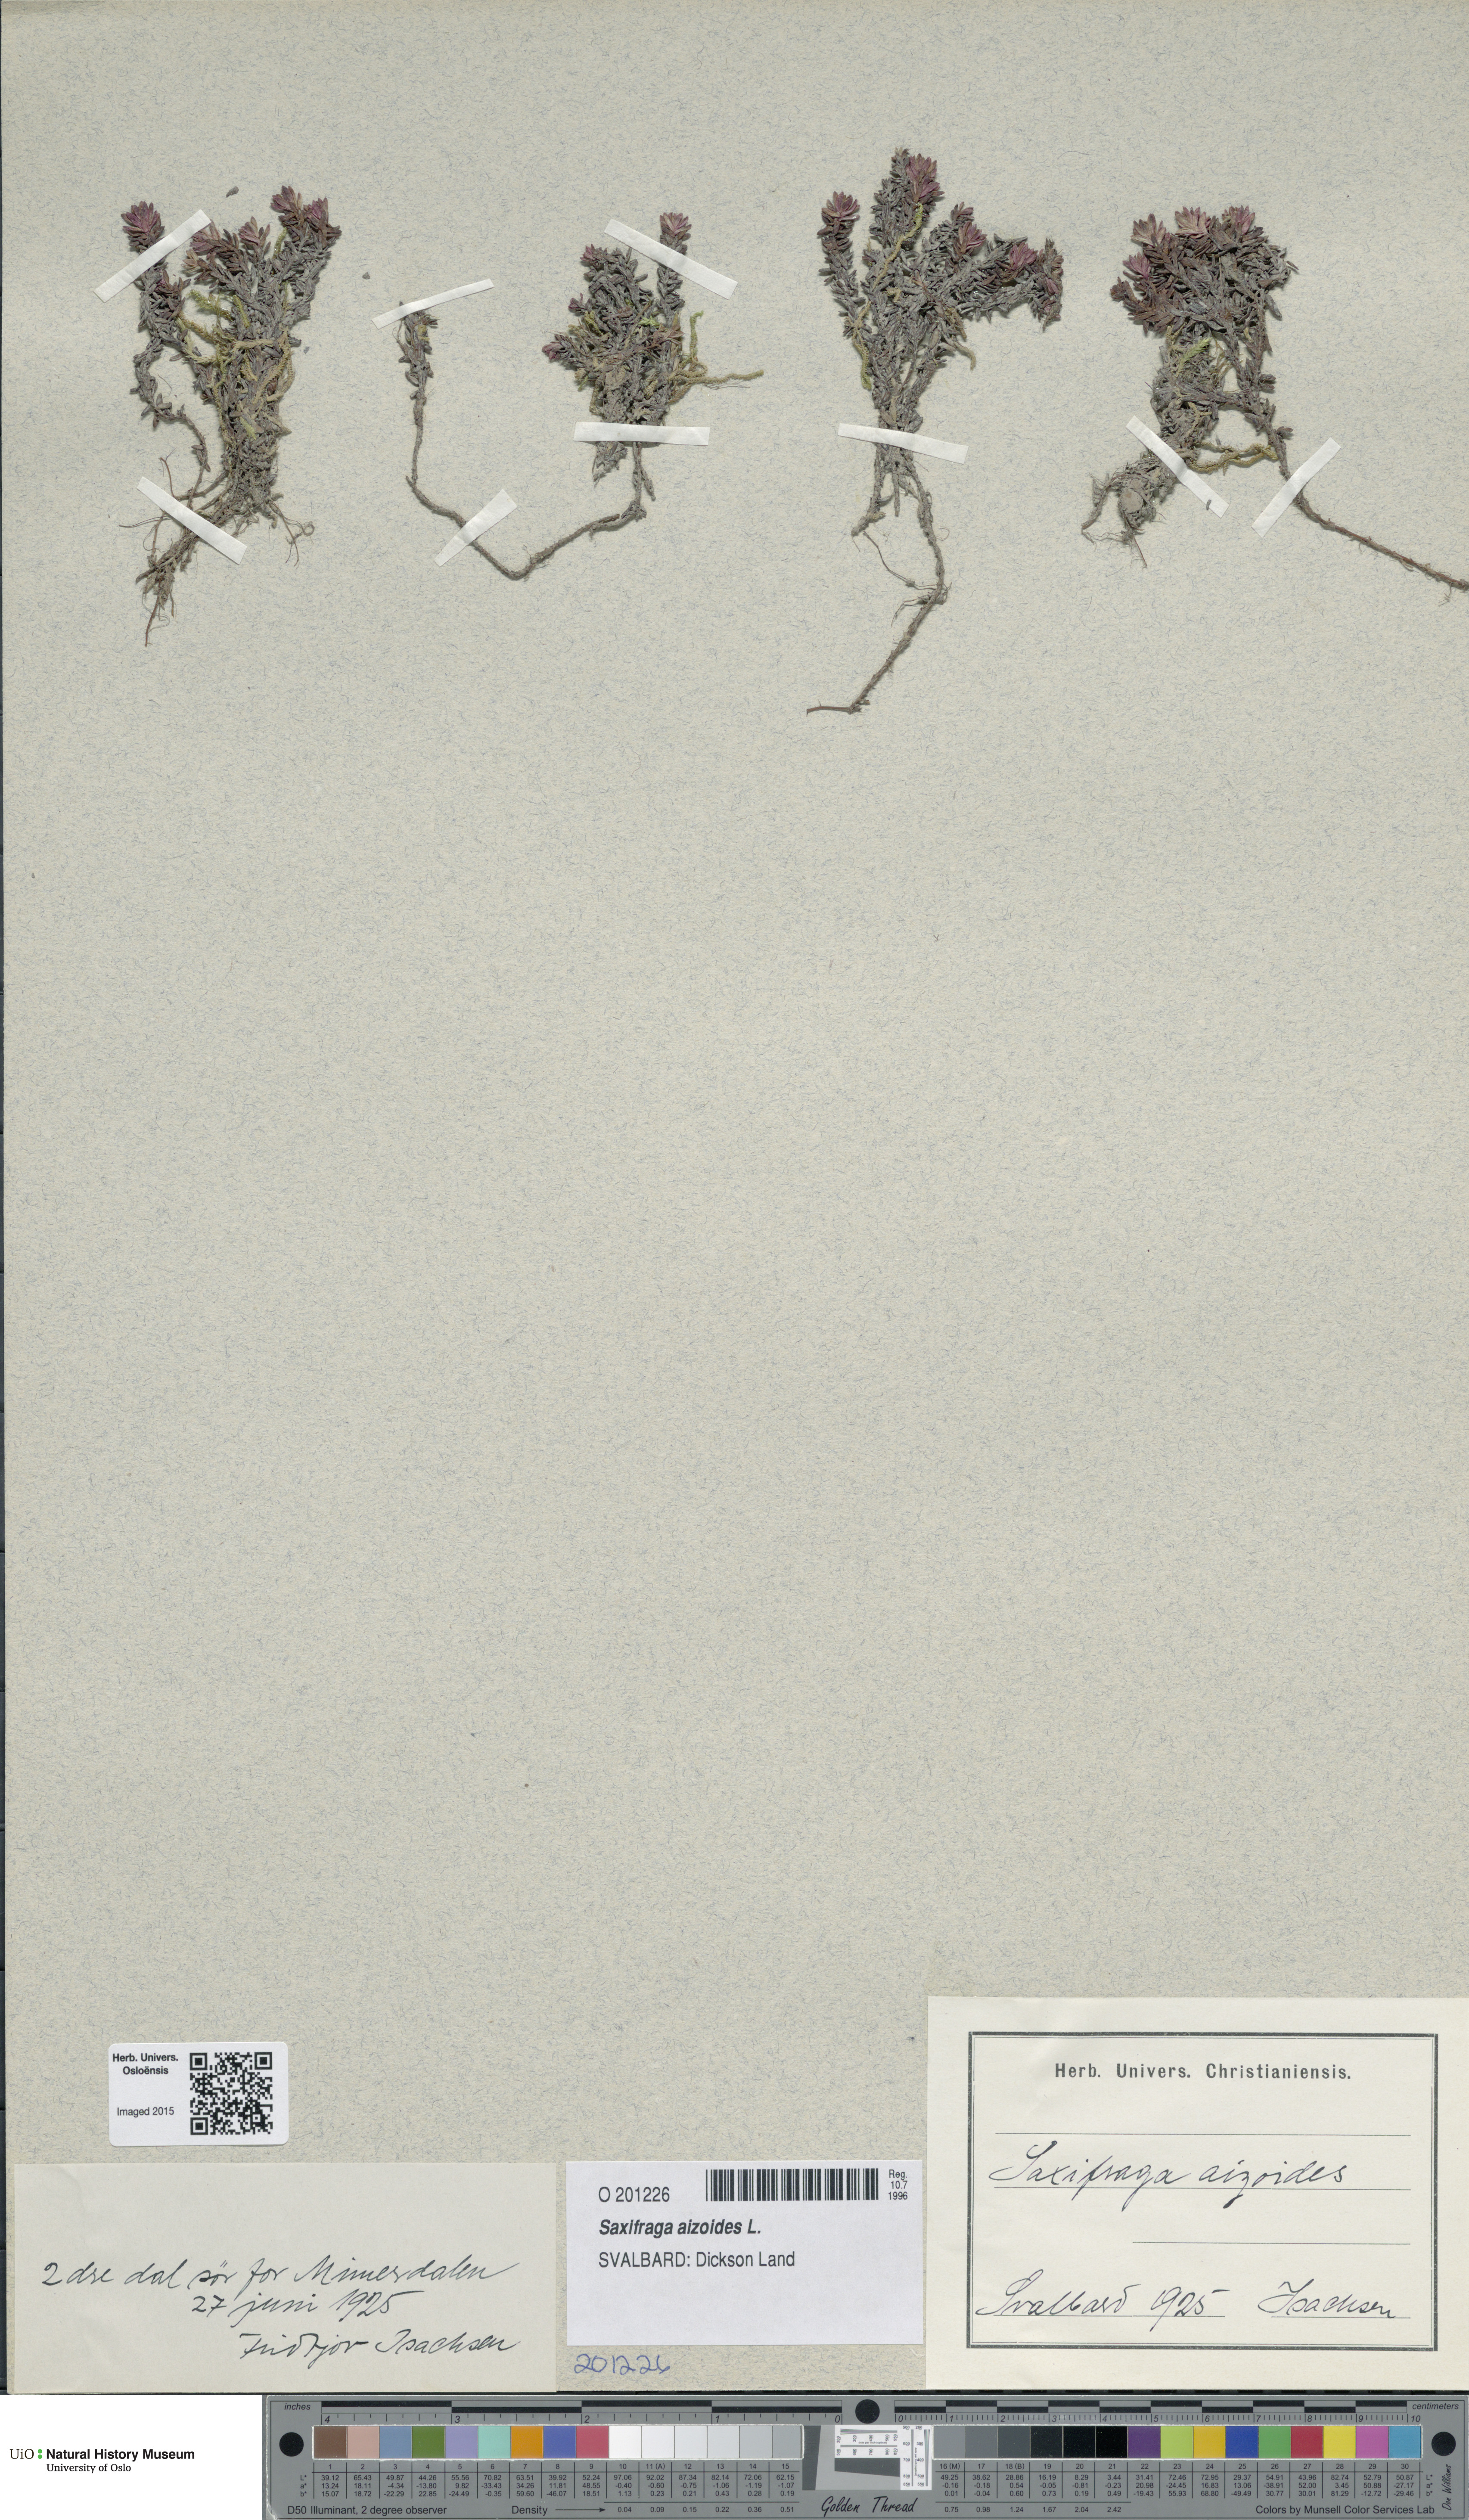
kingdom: Plantae
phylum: Tracheophyta
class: Magnoliopsida
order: Saxifragales
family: Saxifragaceae
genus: Saxifraga
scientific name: Saxifraga aizoides
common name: Yellow mountain saxifrage
